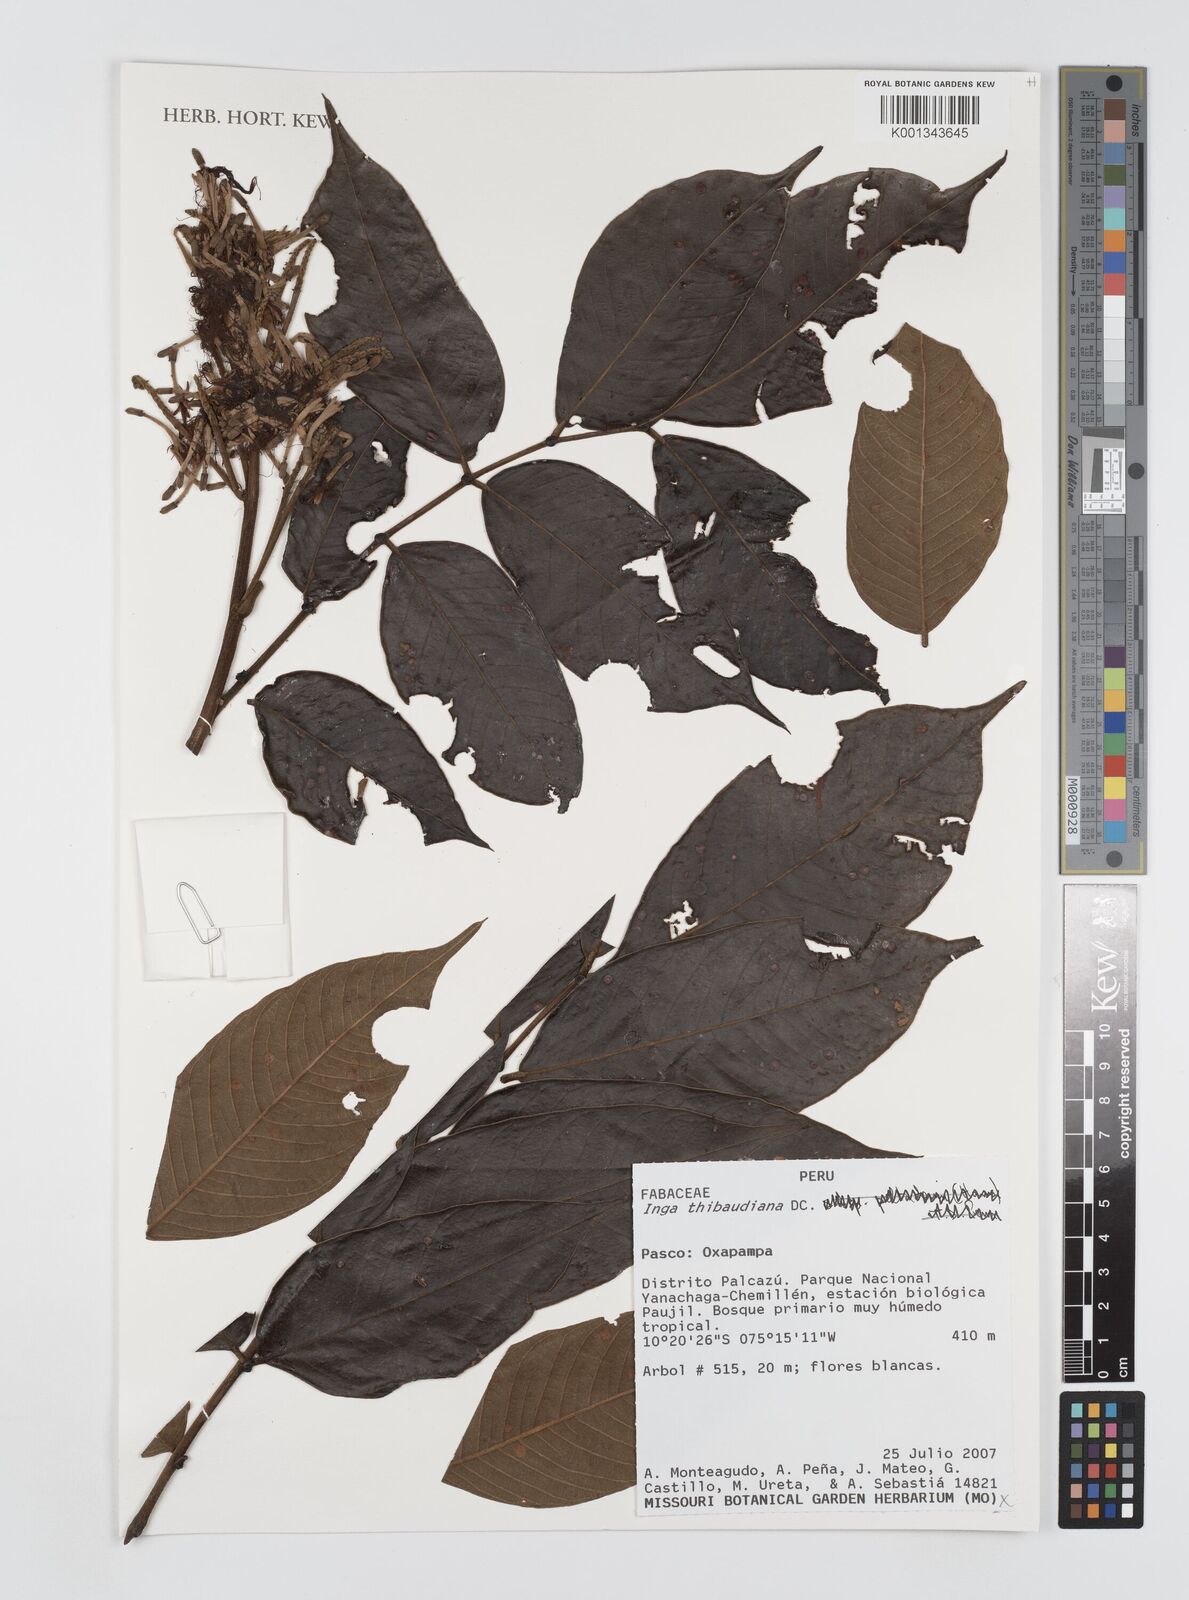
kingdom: Plantae
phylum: Tracheophyta
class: Magnoliopsida
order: Fabales
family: Fabaceae
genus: Inga
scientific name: Inga thibaudiana
